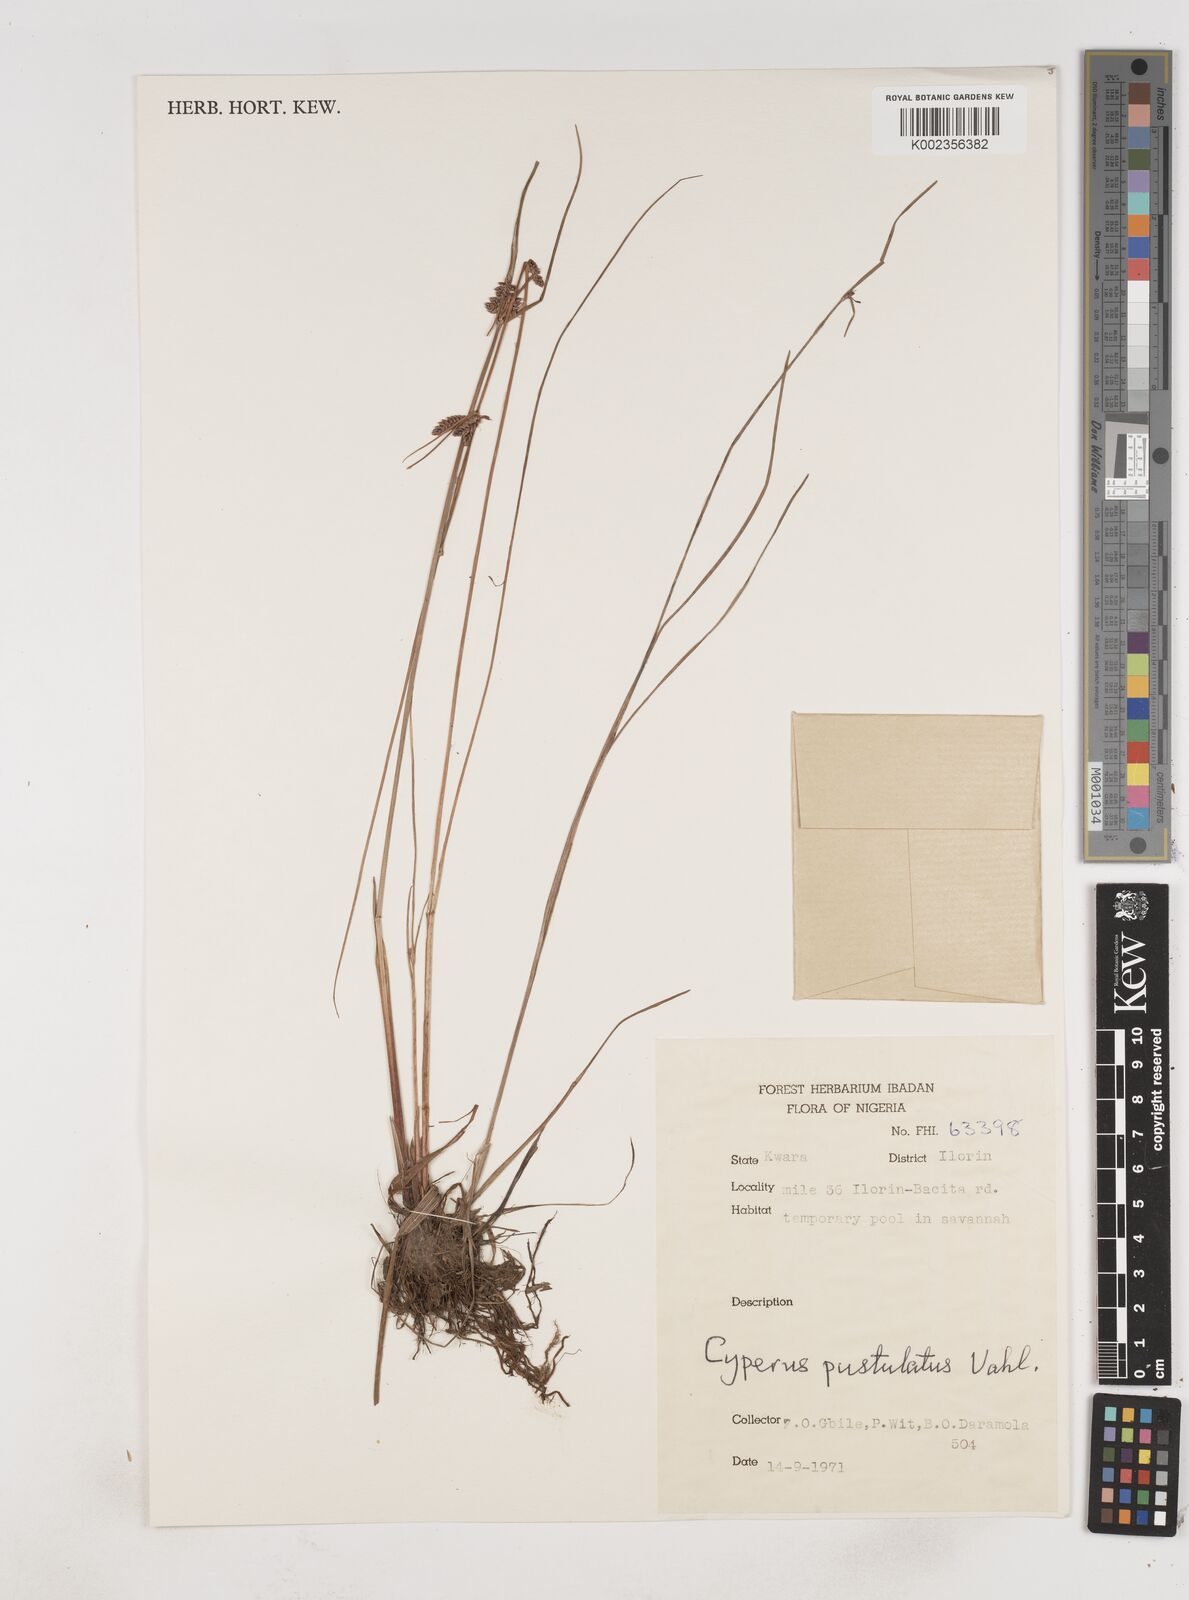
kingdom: Plantae
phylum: Tracheophyta
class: Liliopsida
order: Poales
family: Cyperaceae
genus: Cyperus
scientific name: Cyperus pustulatus
